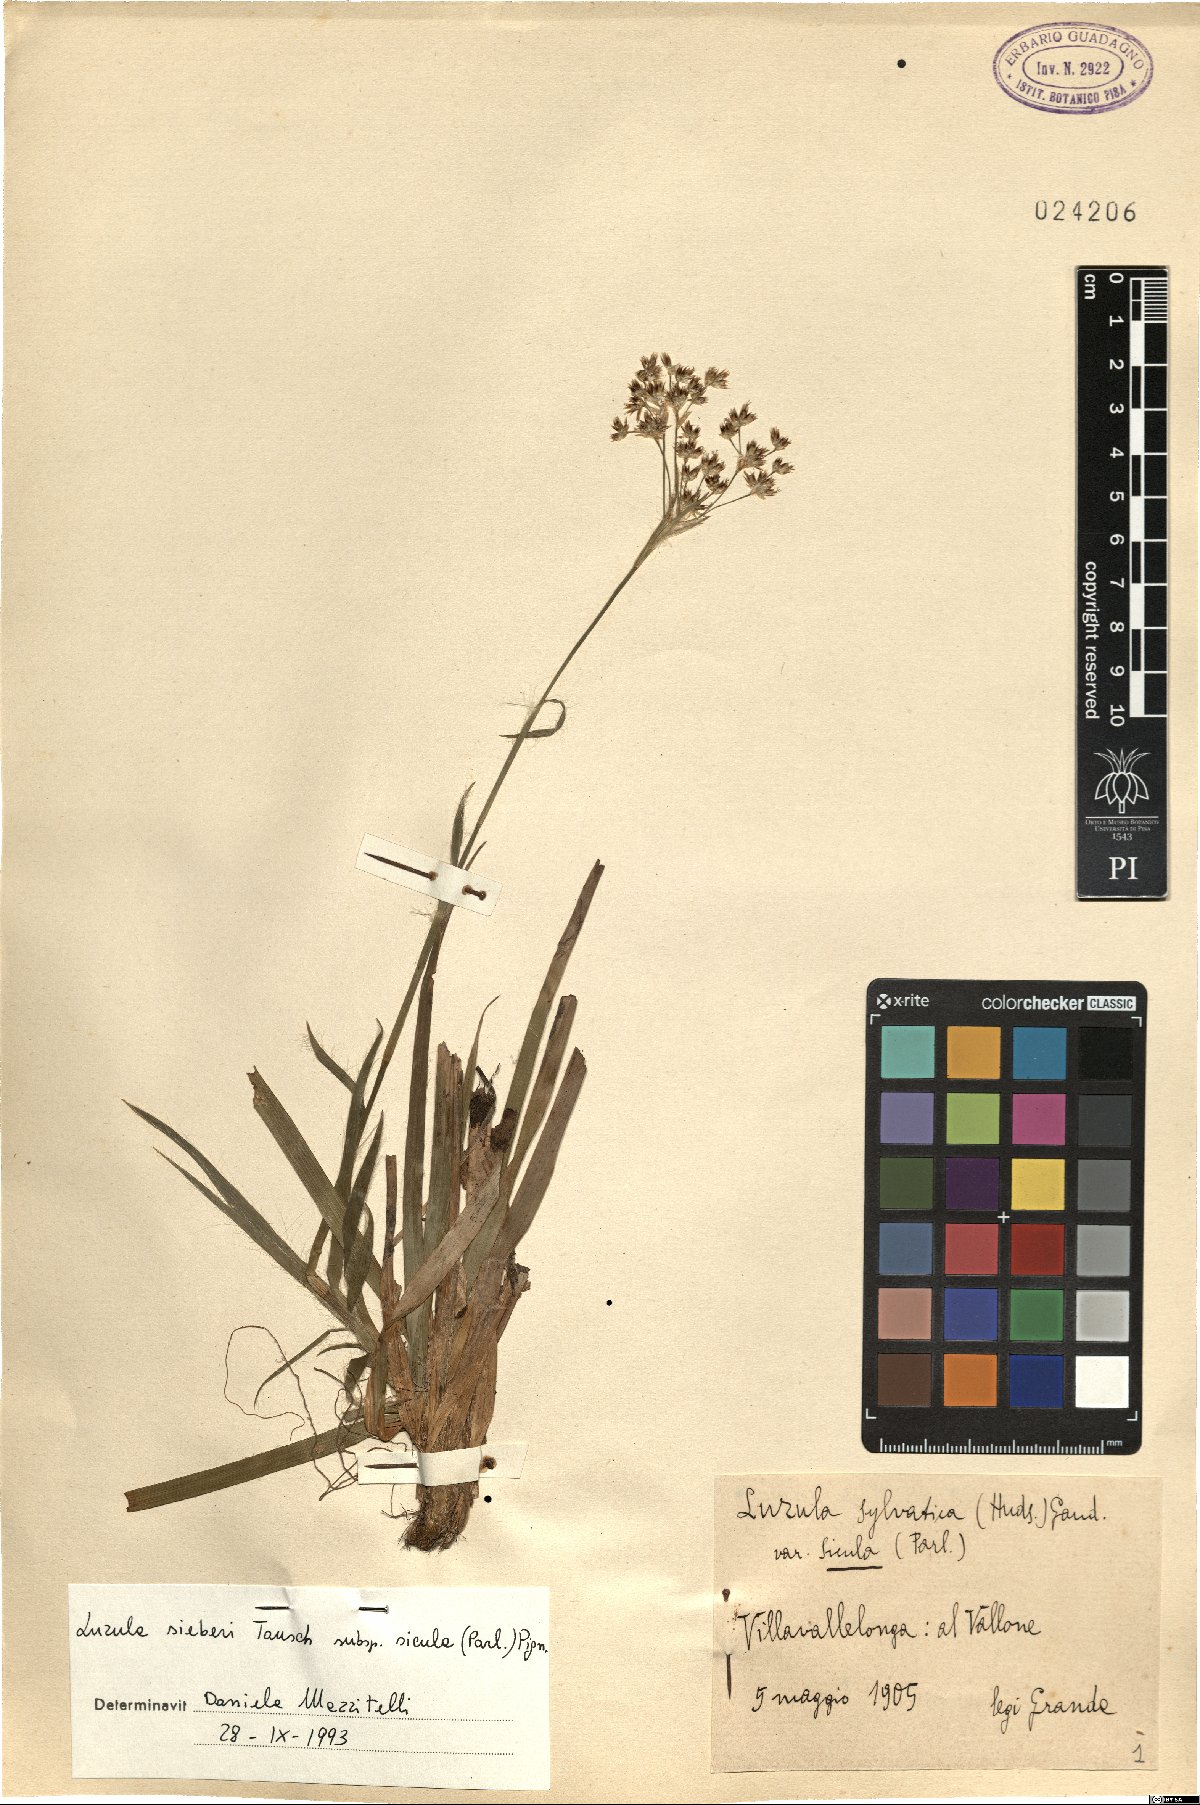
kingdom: Plantae
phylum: Tracheophyta
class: Liliopsida
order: Poales
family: Juncaceae
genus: Luzula
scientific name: Luzula sylvatica
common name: Great wood-rush
